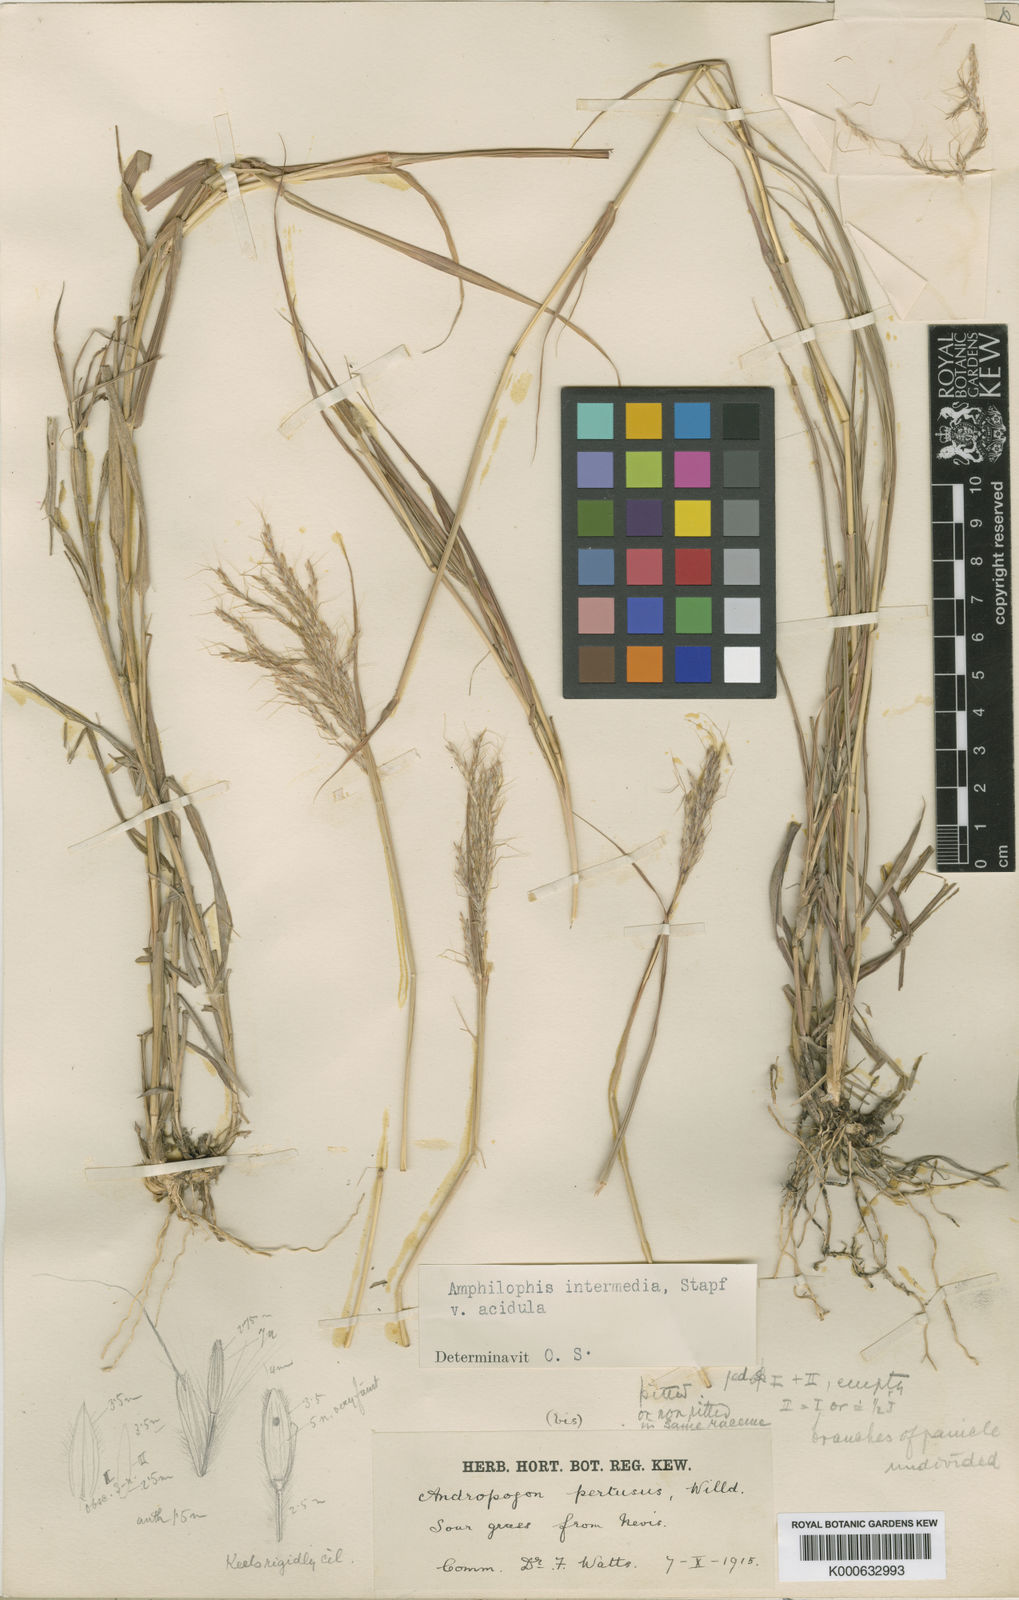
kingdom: Plantae
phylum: Tracheophyta
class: Liliopsida
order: Poales
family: Poaceae
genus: Bothriochloa
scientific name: Bothriochloa bladhii
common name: Caucasian bluestem
